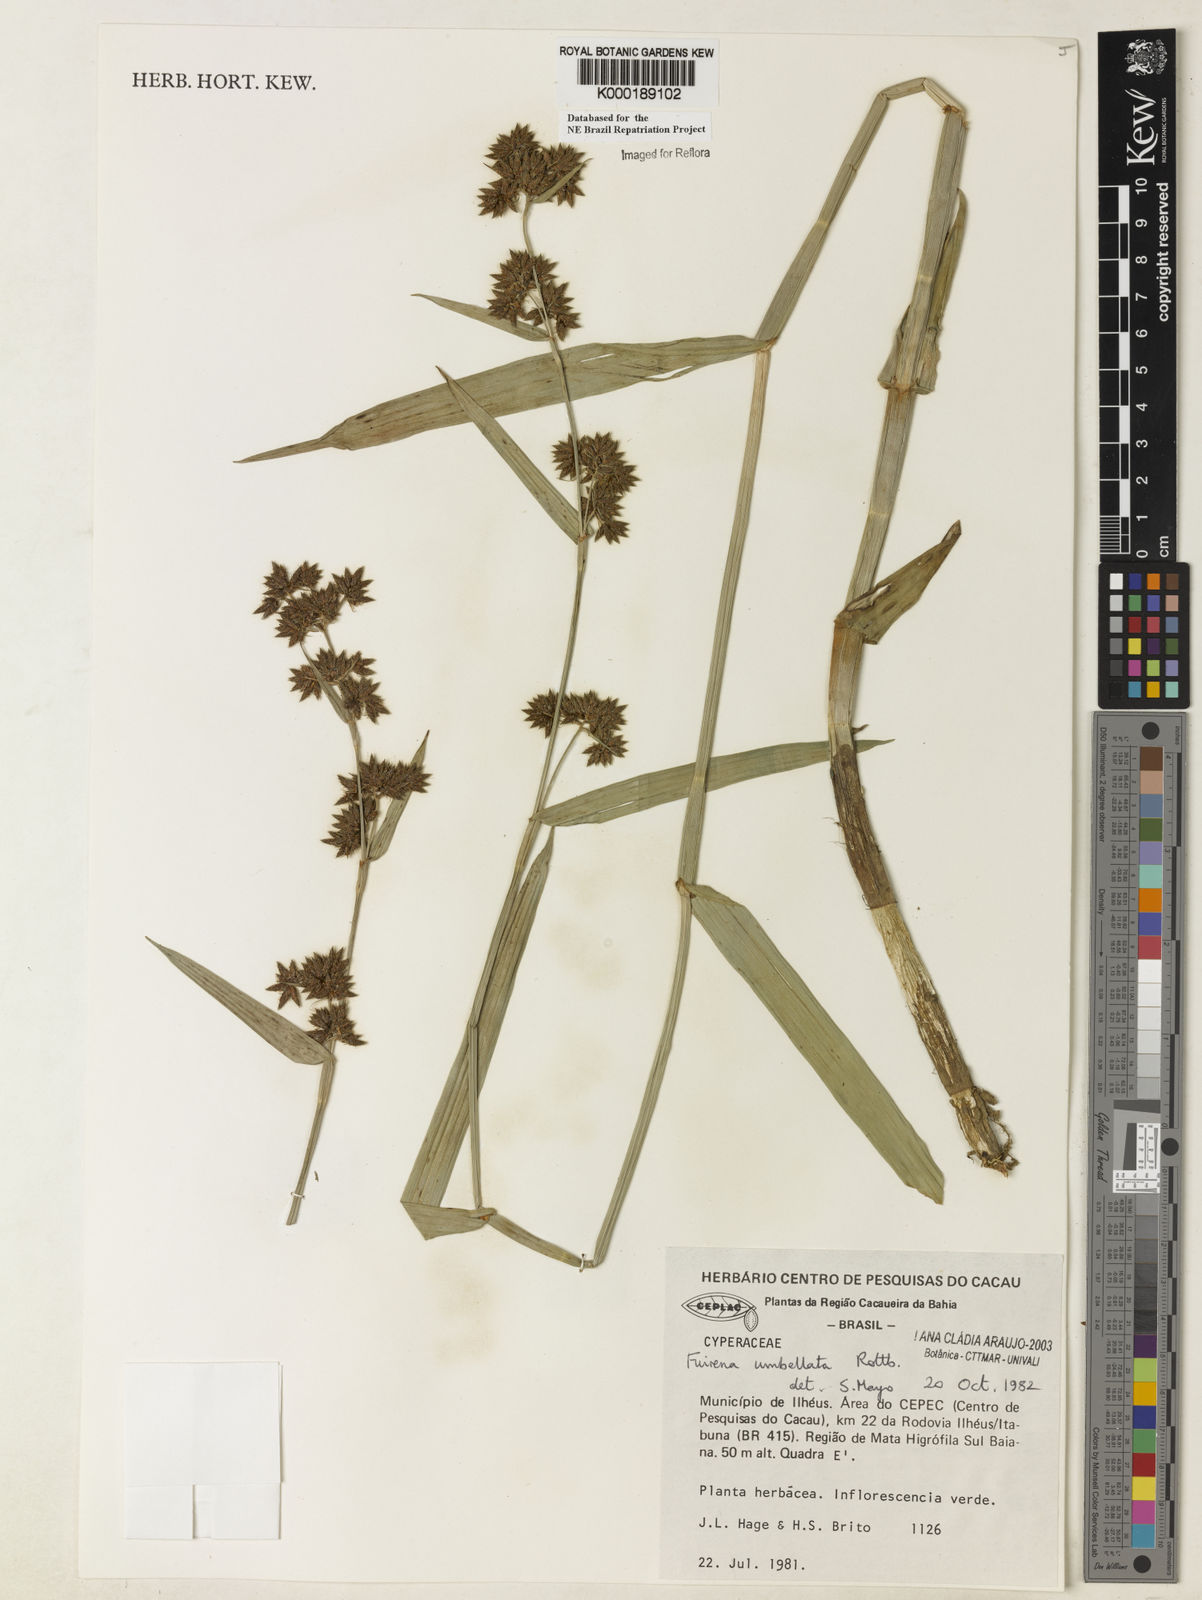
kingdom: Plantae
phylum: Tracheophyta
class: Liliopsida
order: Poales
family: Cyperaceae
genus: Fuirena
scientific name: Fuirena umbellata
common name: Yefen
